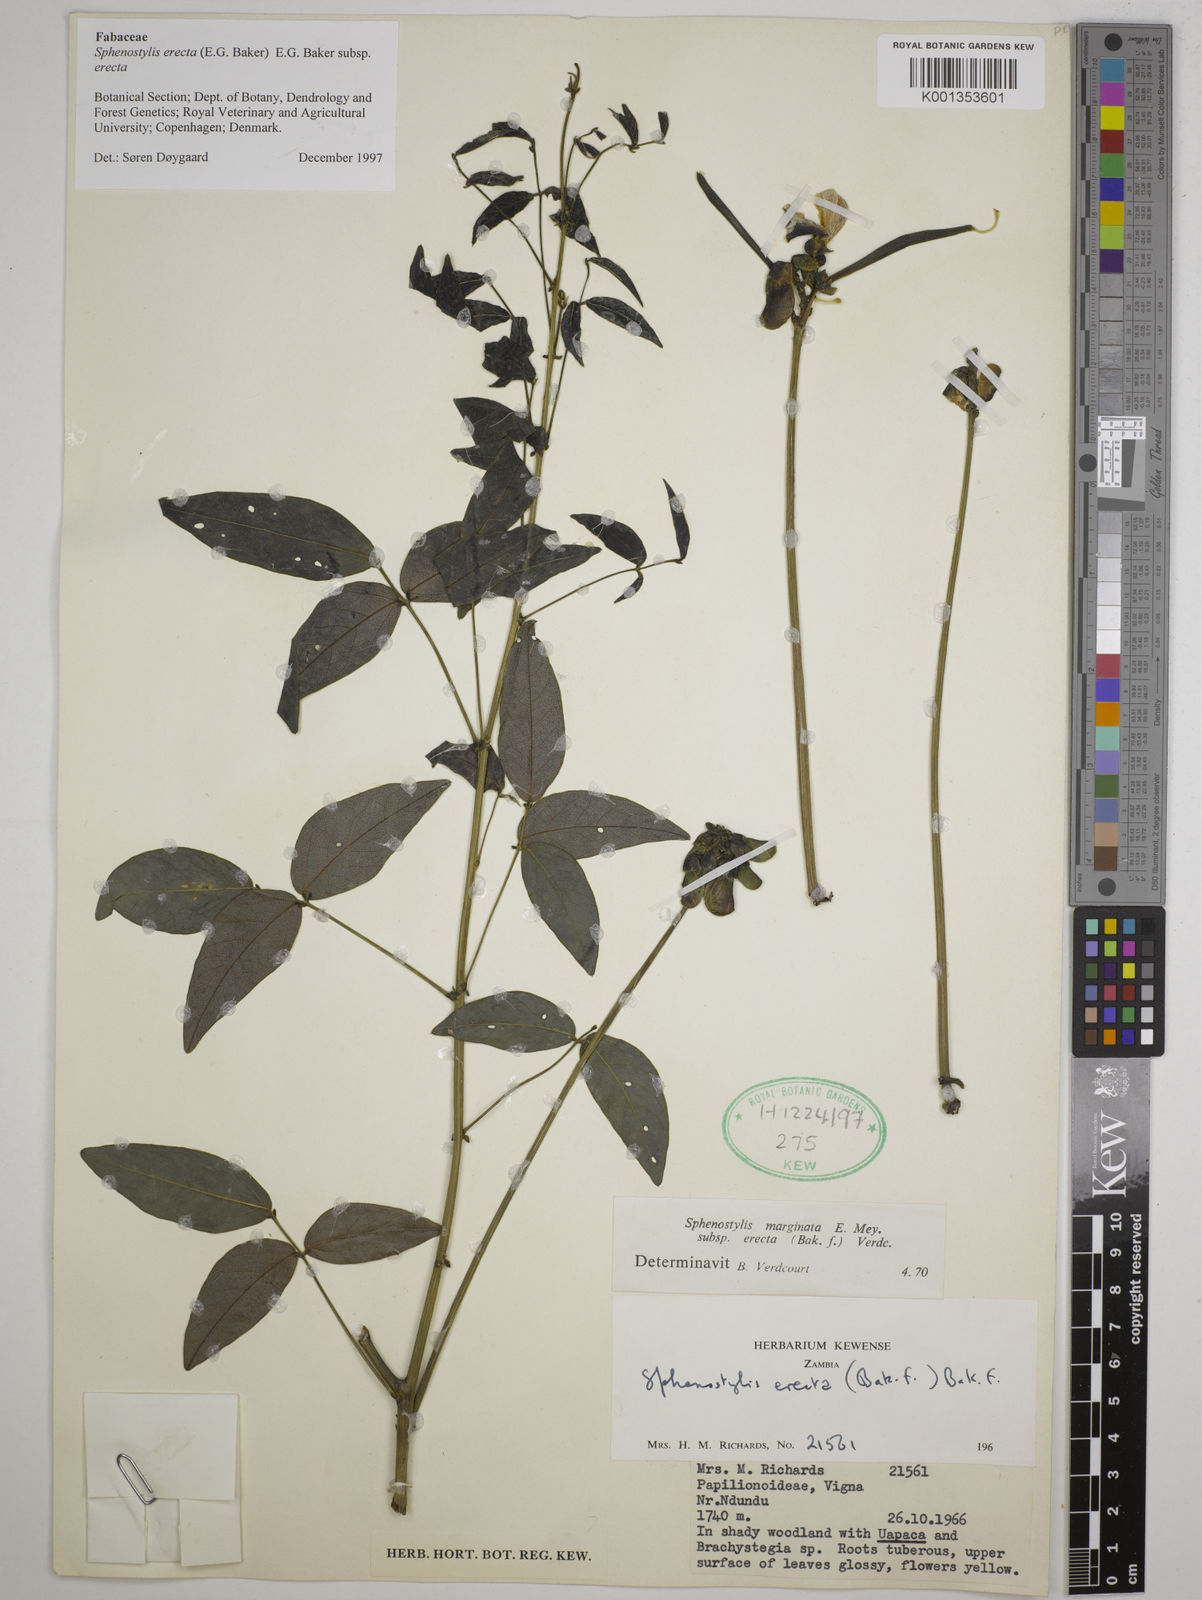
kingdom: Plantae
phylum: Tracheophyta
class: Magnoliopsida
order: Fabales
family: Fabaceae
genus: Sphenostylis
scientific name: Sphenostylis erecta
